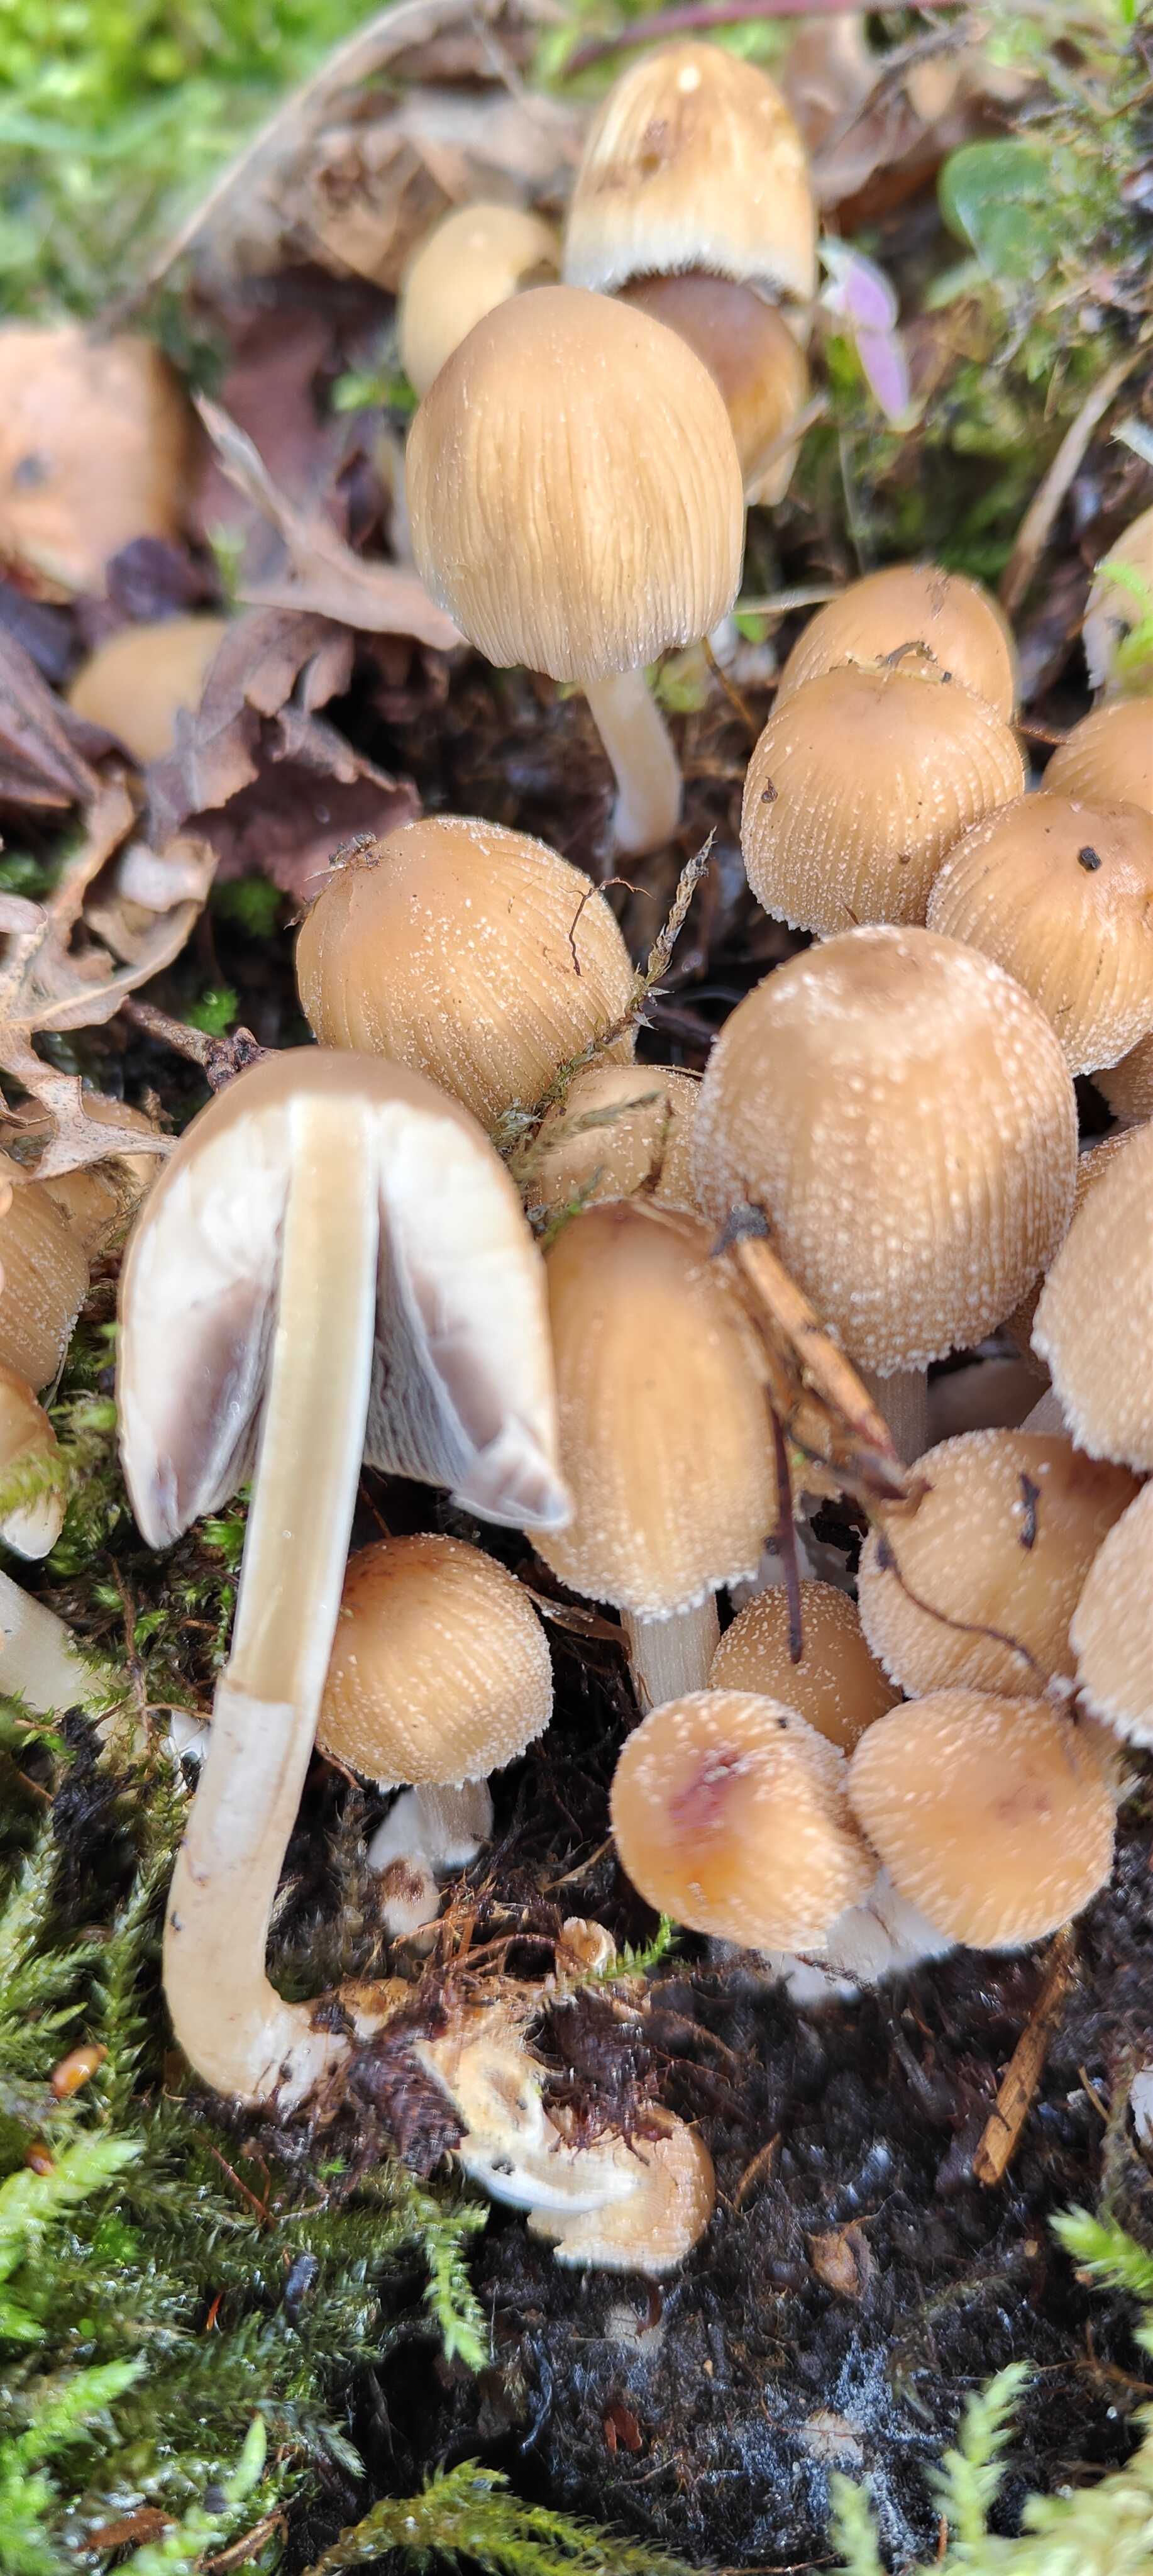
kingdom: Fungi
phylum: Basidiomycota
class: Agaricomycetes
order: Agaricales
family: Psathyrellaceae
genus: Coprinellus
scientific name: Coprinellus
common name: blækhat
